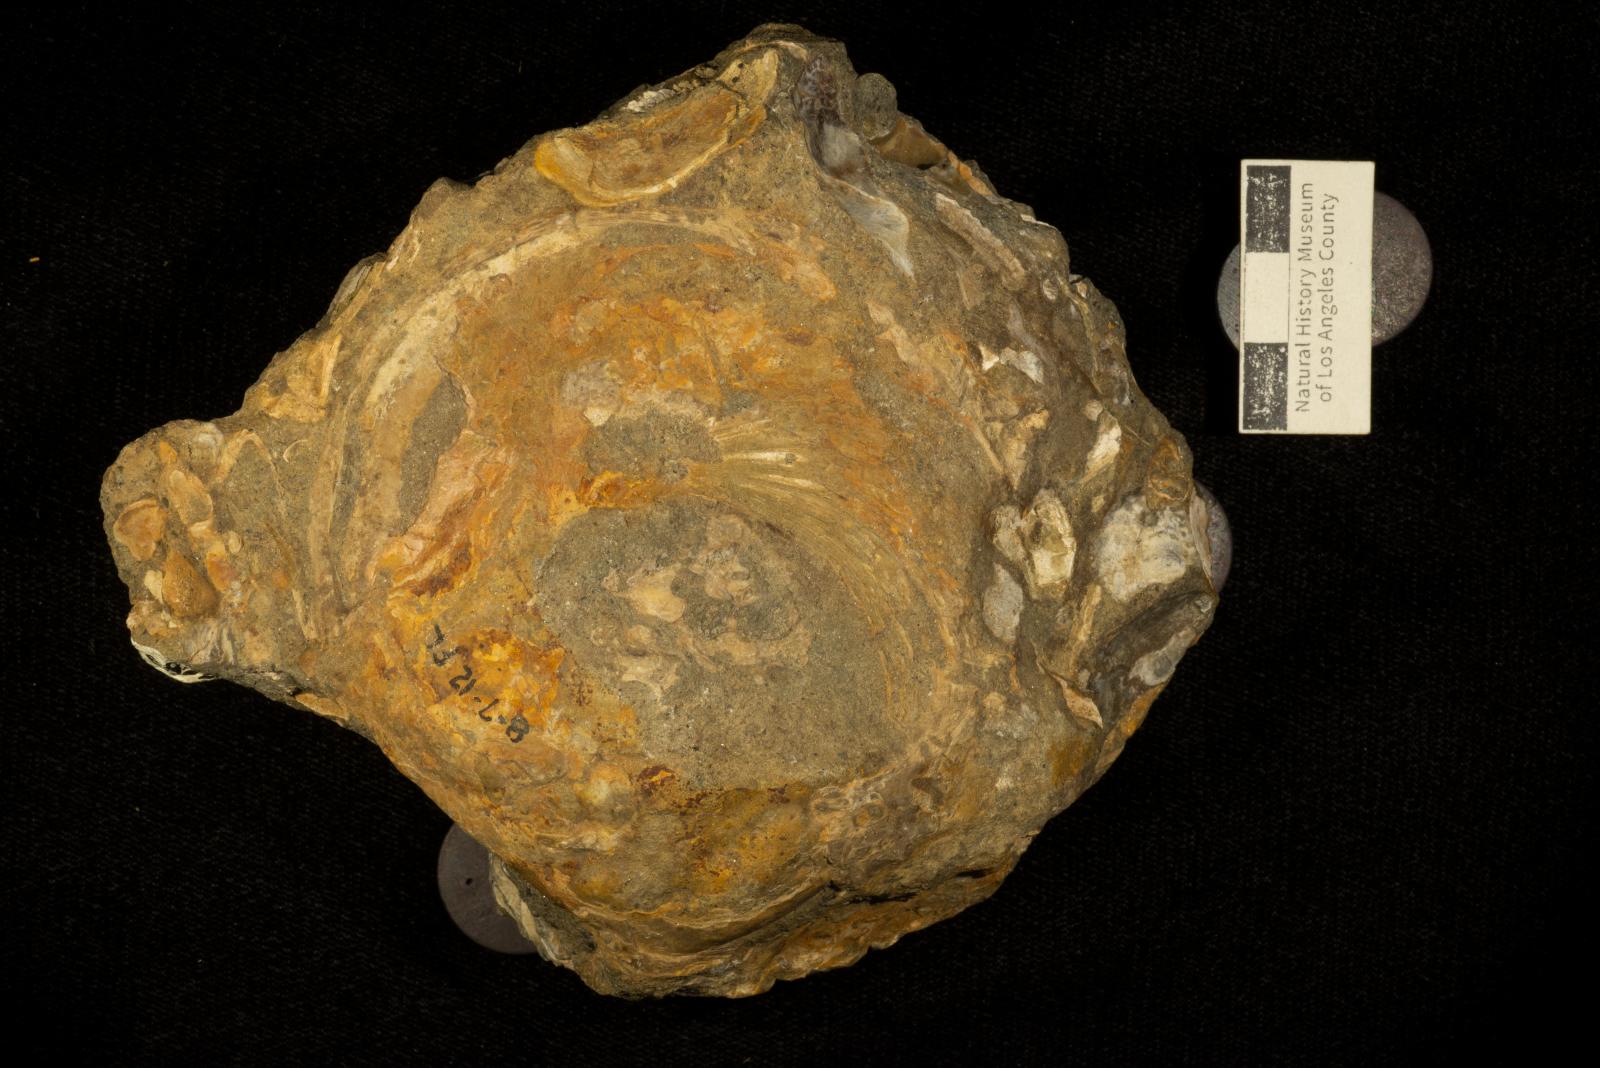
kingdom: Animalia
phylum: Mollusca
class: Gastropoda
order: Littorinimorpha
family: Xenophoridae
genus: Xenophora
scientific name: Xenophora willisi
